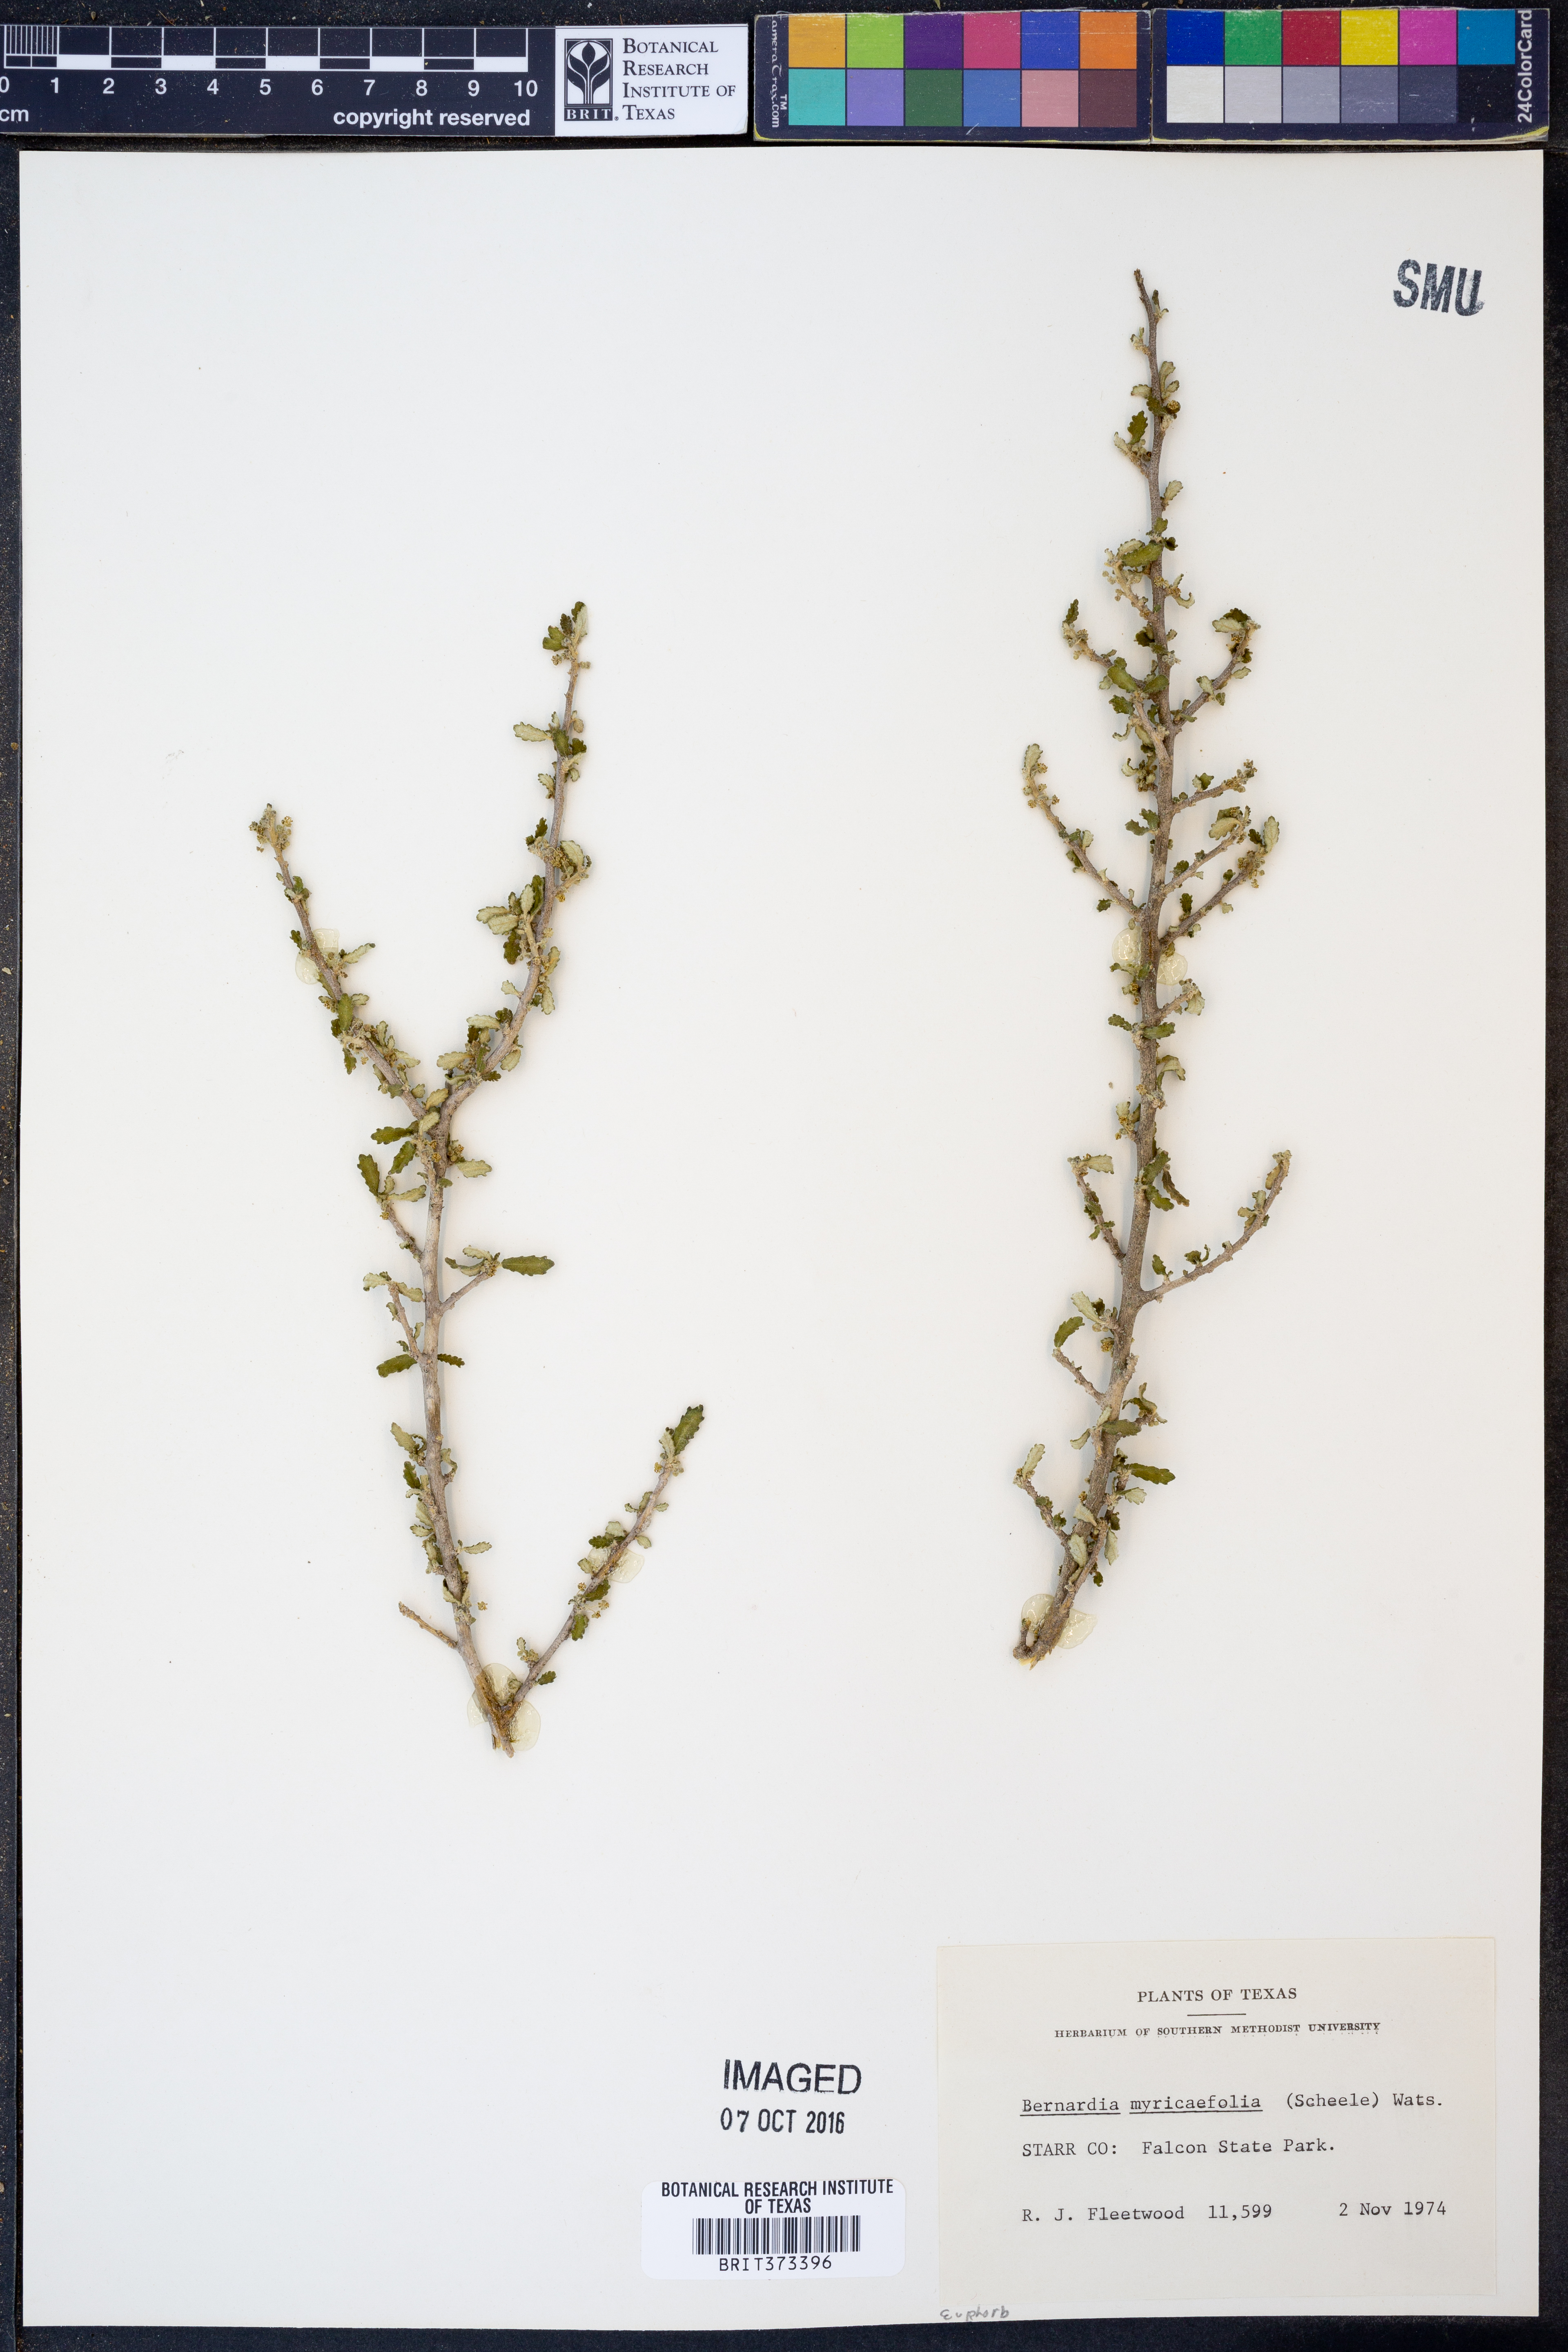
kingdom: Plantae
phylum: Tracheophyta
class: Magnoliopsida
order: Malpighiales
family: Euphorbiaceae
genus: Bernardia
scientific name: Bernardia myricifolia
